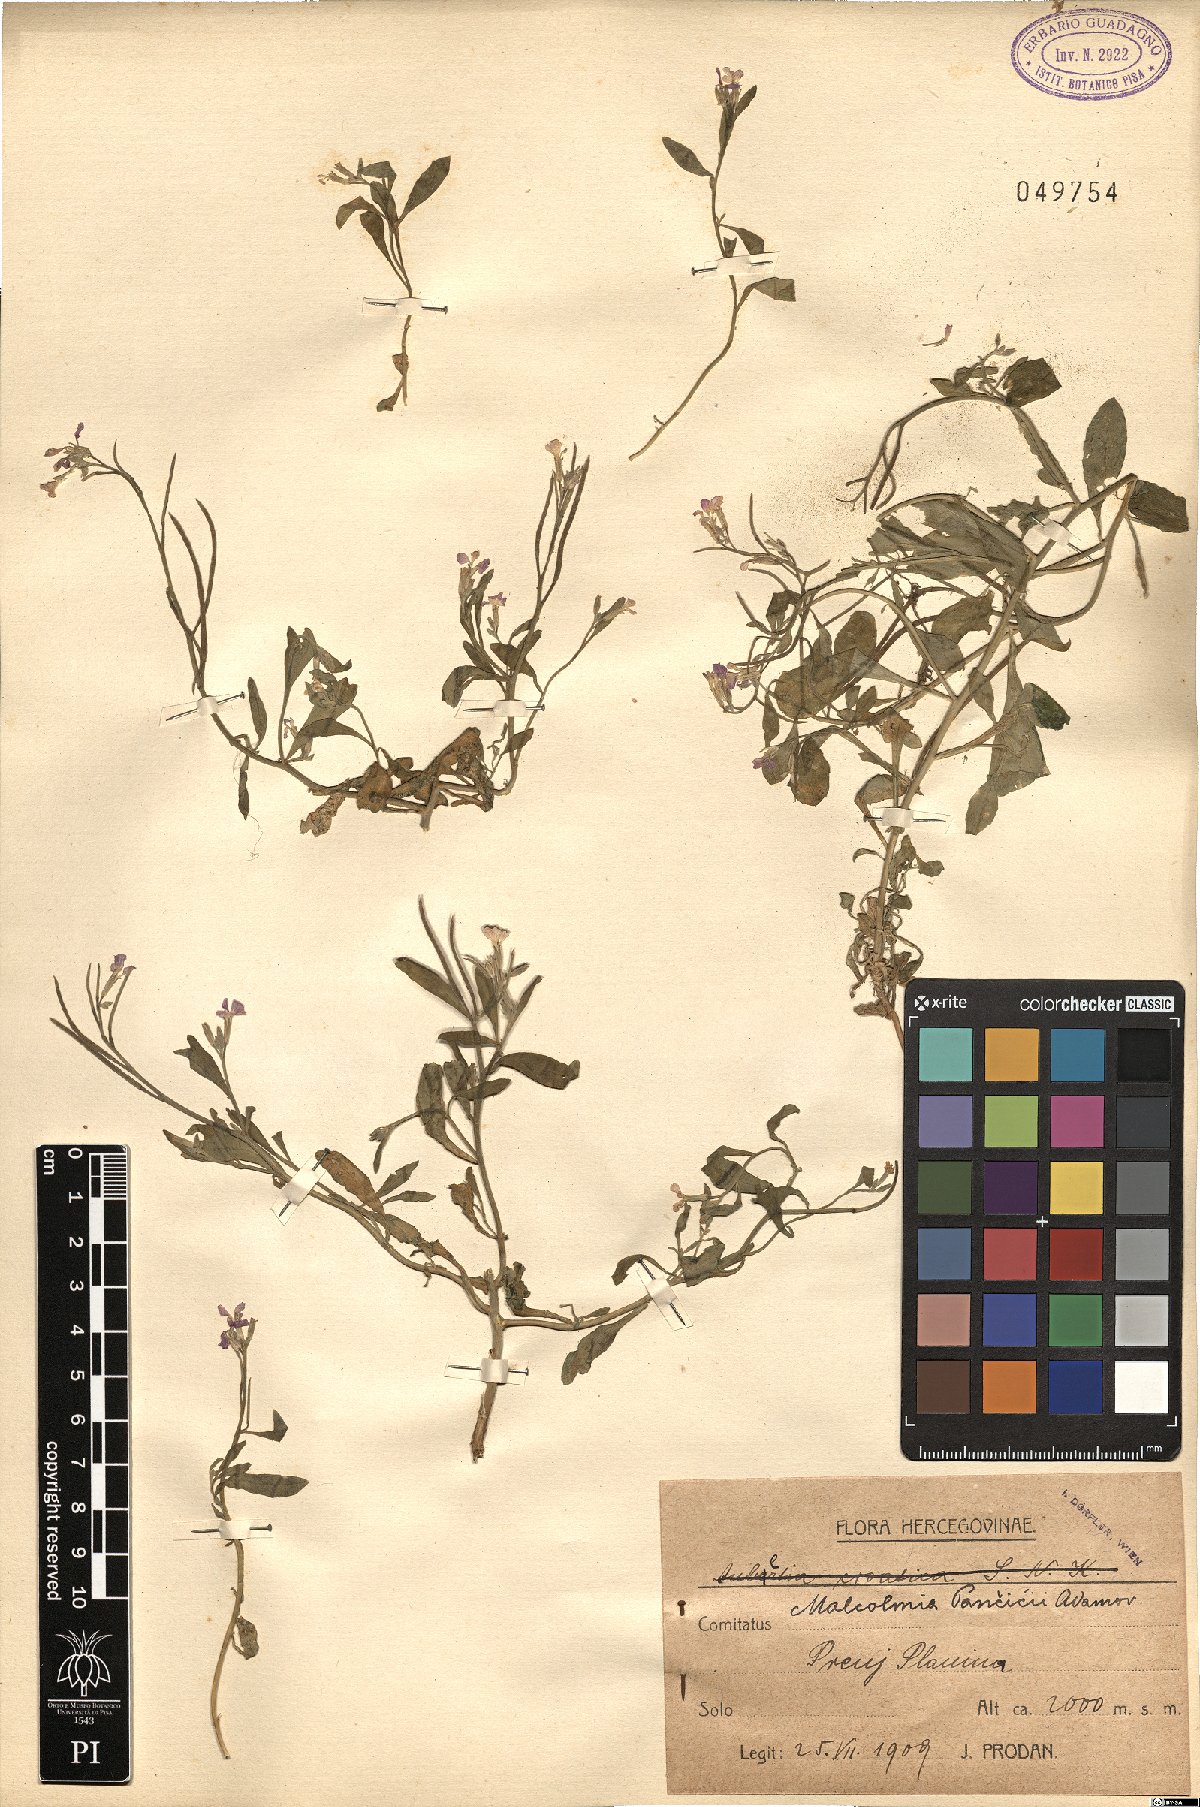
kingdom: Plantae
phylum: Tracheophyta
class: Magnoliopsida
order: Brassicales
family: Brassicaceae
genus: Malcolmia
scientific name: Malcolmia orsiniana
